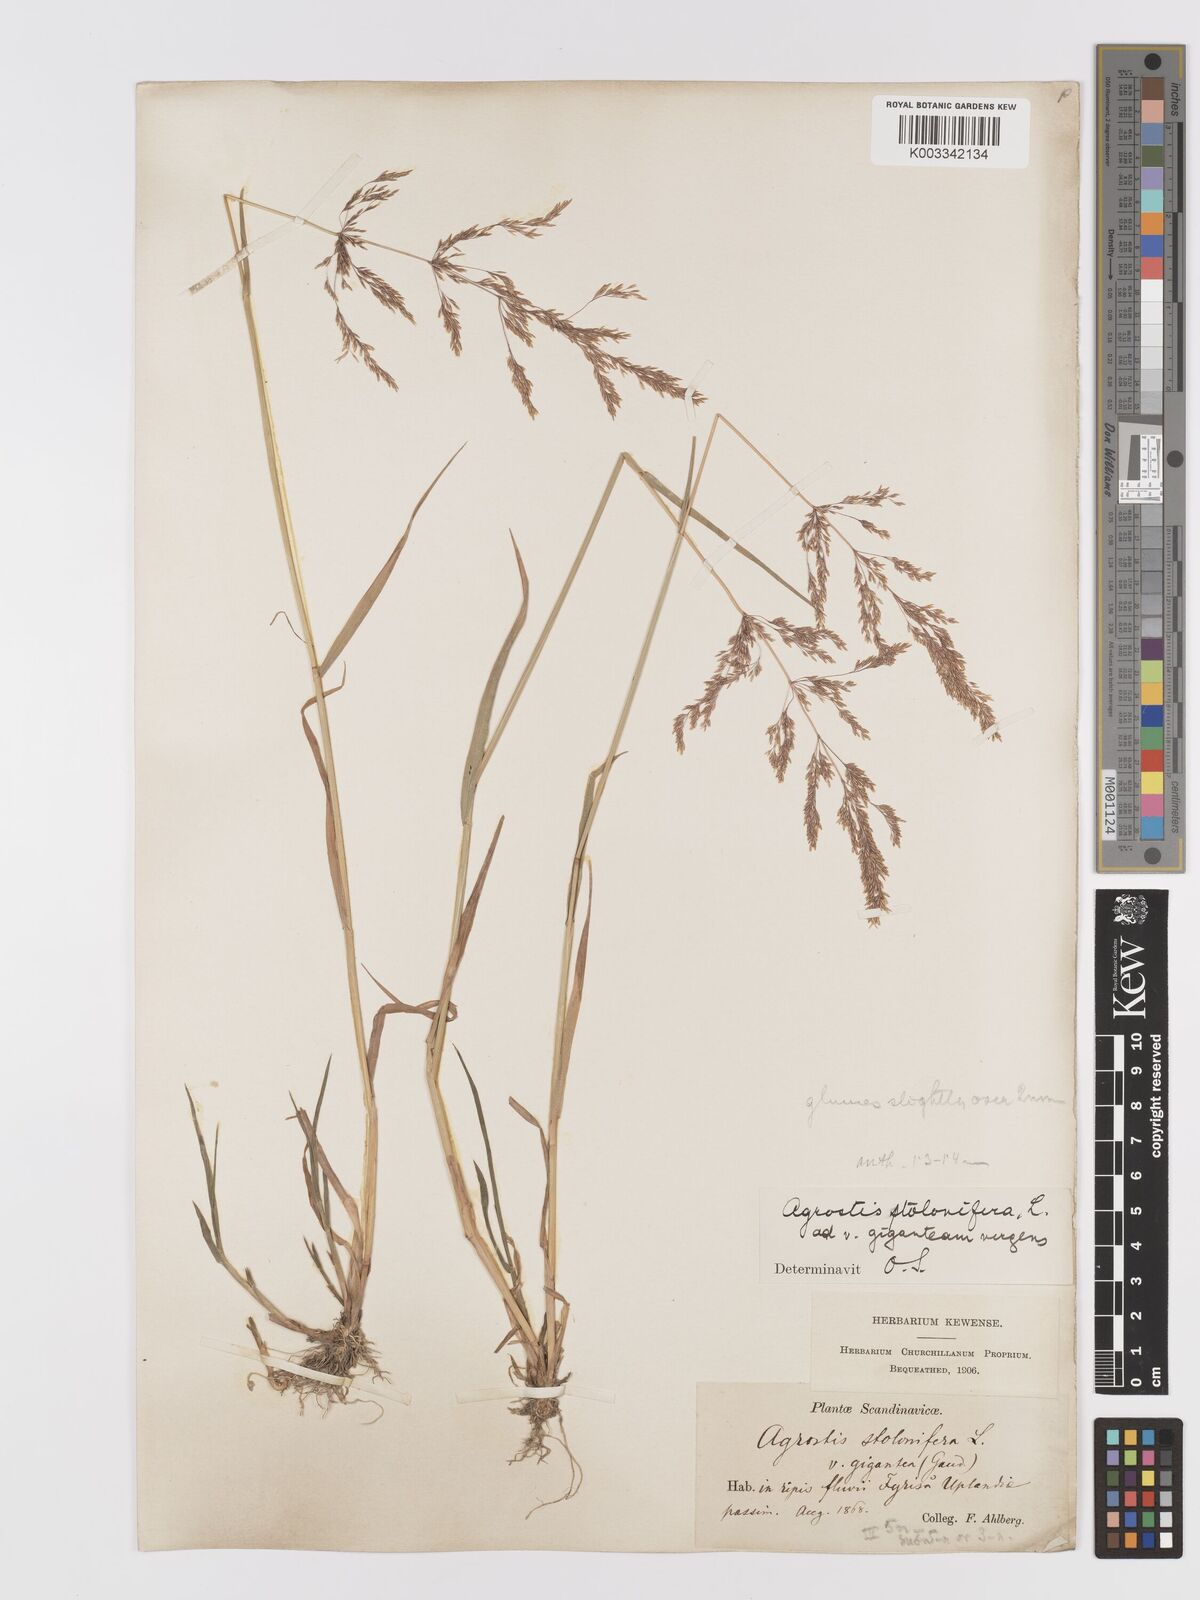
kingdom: Plantae
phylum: Tracheophyta
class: Liliopsida
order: Poales
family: Poaceae
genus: Agrostis
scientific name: Agrostis stolonifera
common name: Creeping bentgrass
